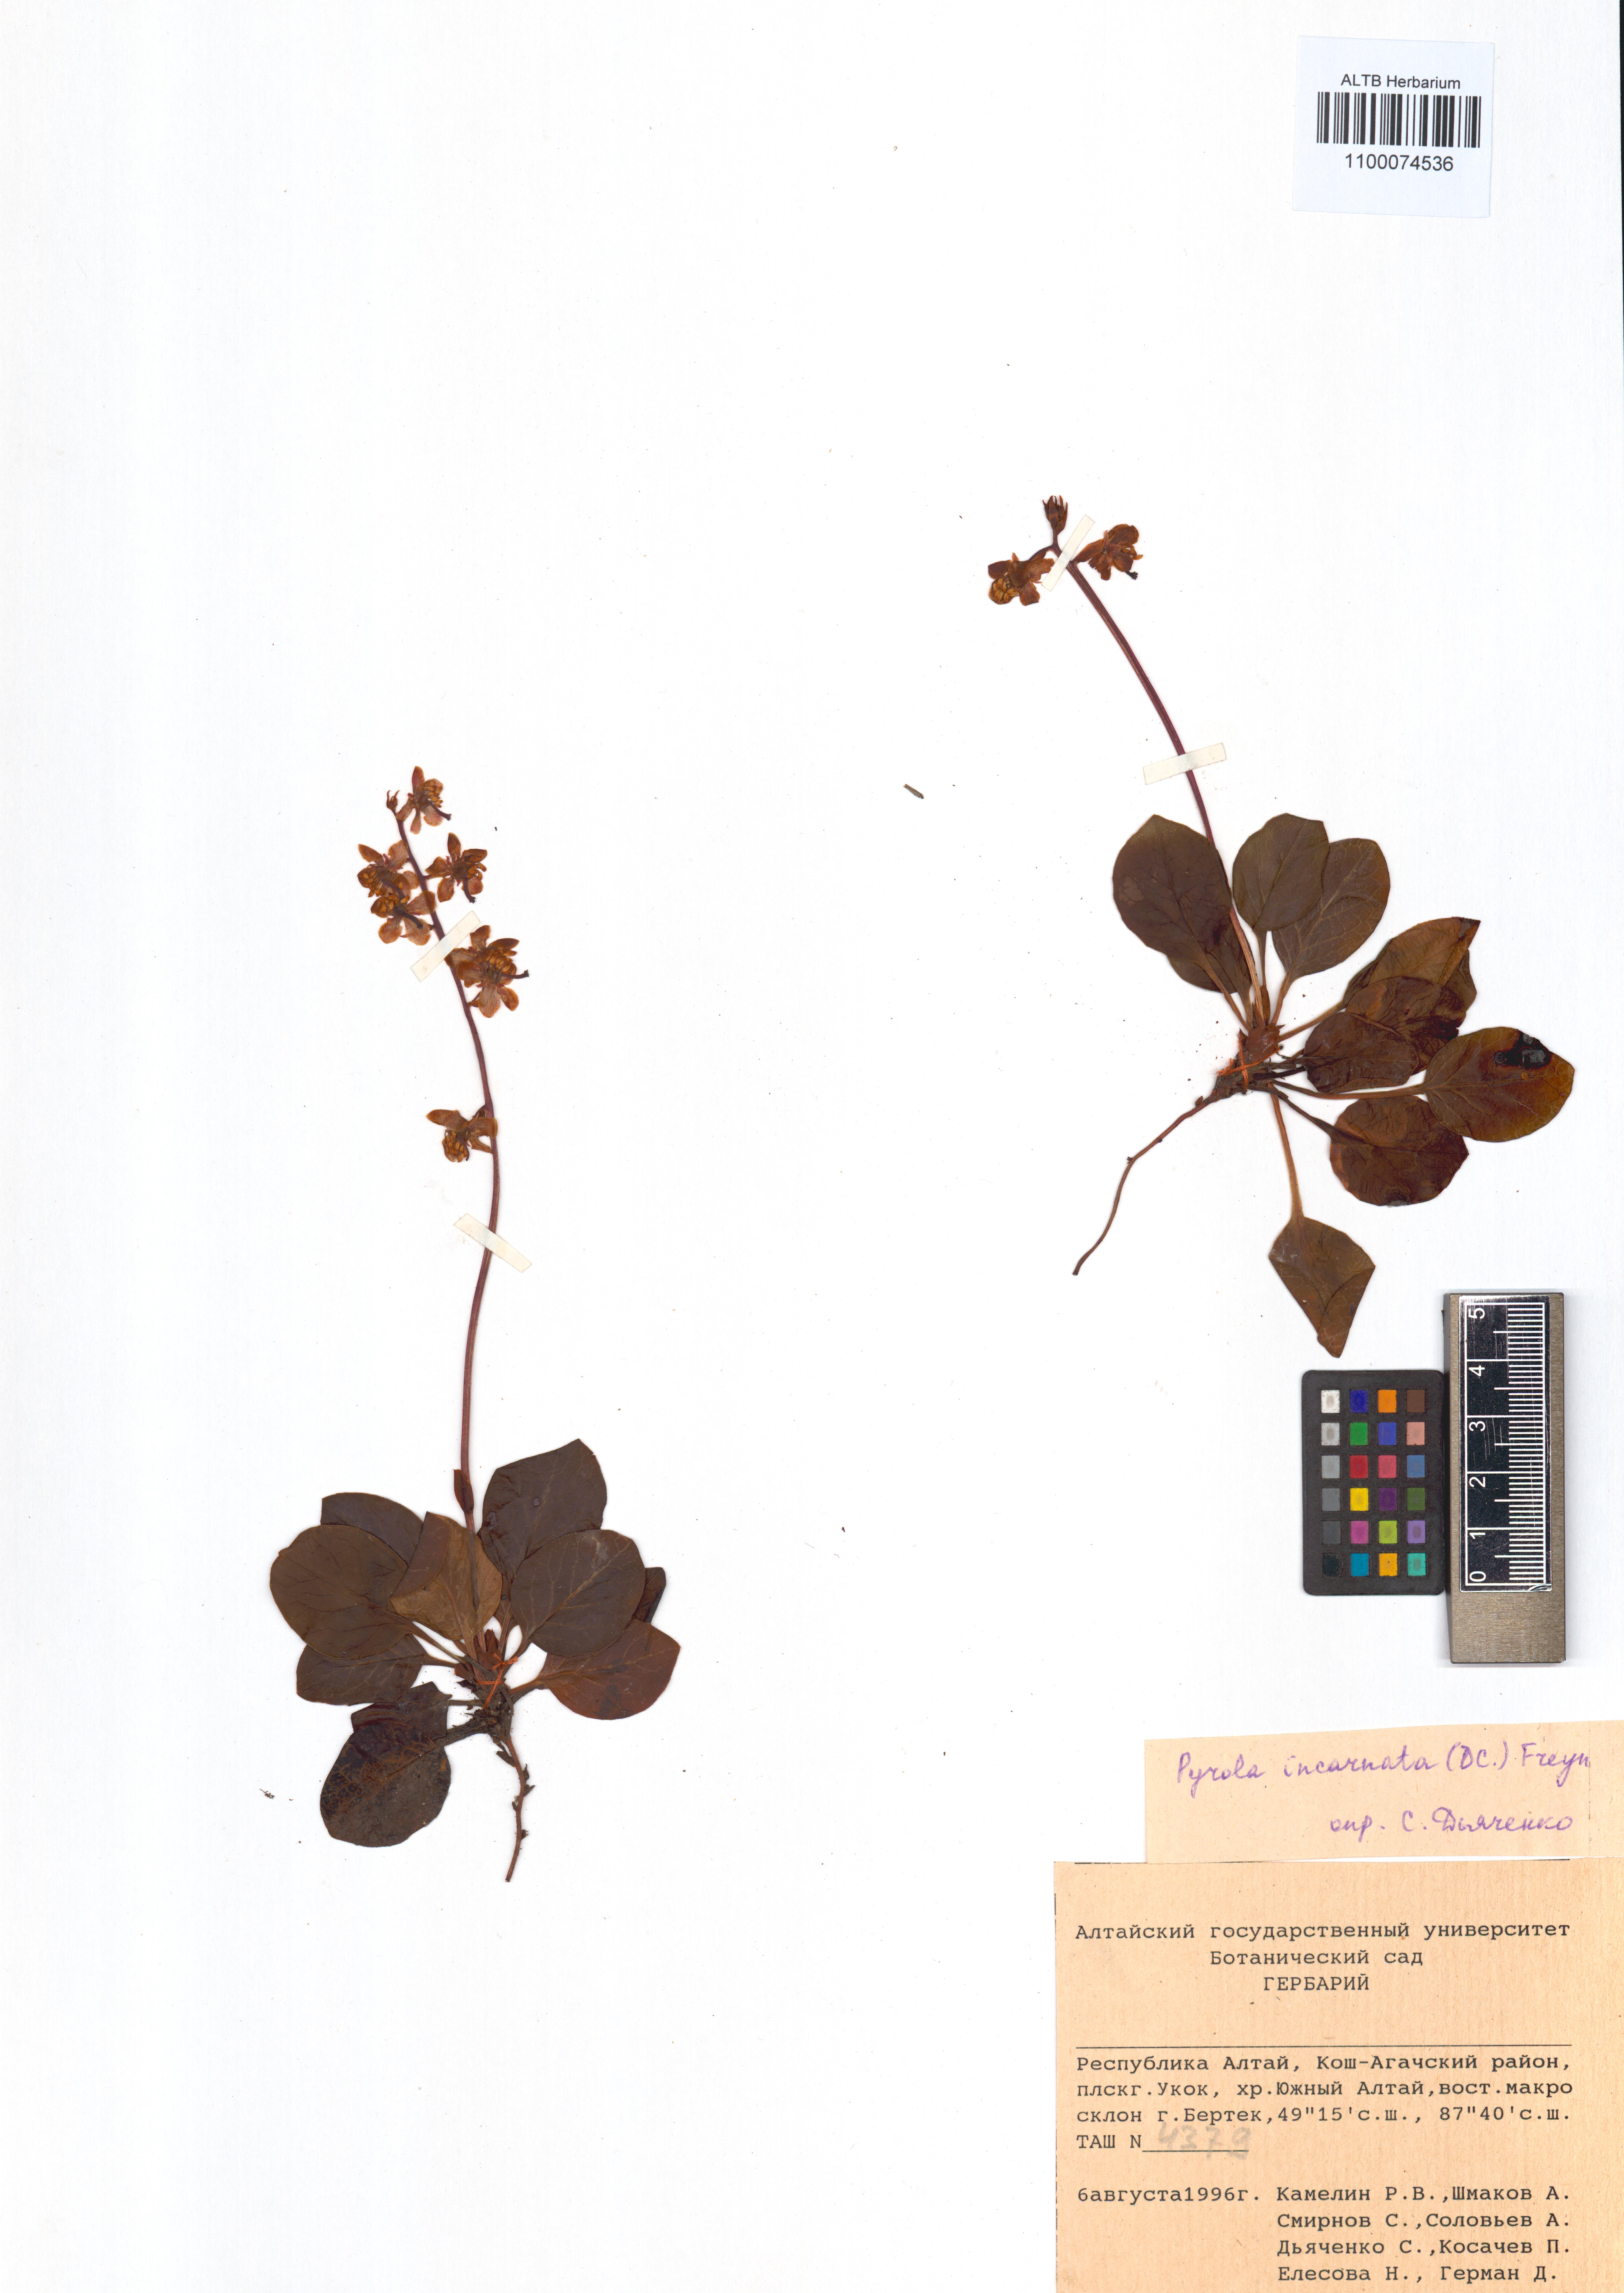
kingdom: Plantae
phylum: Tracheophyta
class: Magnoliopsida
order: Ericales
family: Ericaceae
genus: Pyrola
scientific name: Pyrola asarifolia
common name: Bog wintergreen
